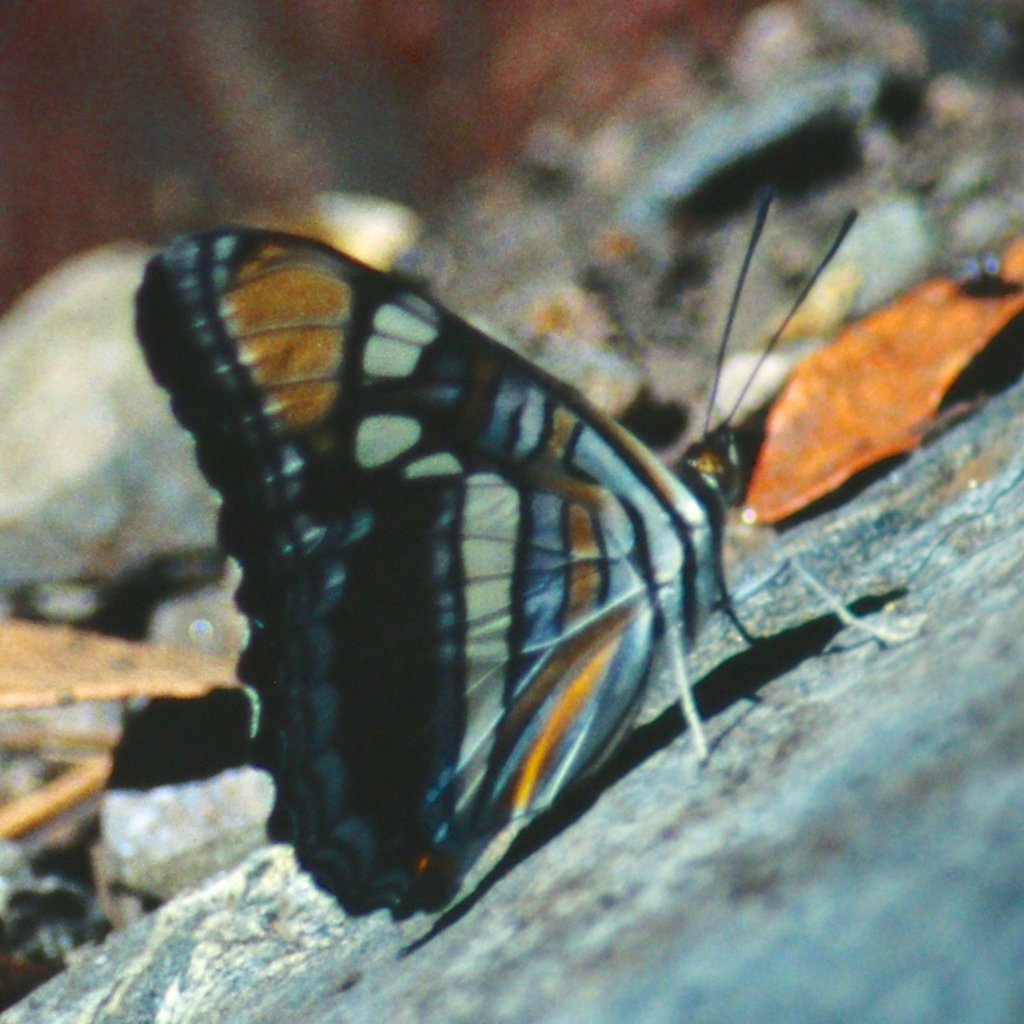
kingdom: Animalia
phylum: Arthropoda
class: Insecta
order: Lepidoptera
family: Nymphalidae
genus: Limenitis
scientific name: Limenitis bredowii
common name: Arizona Sister
